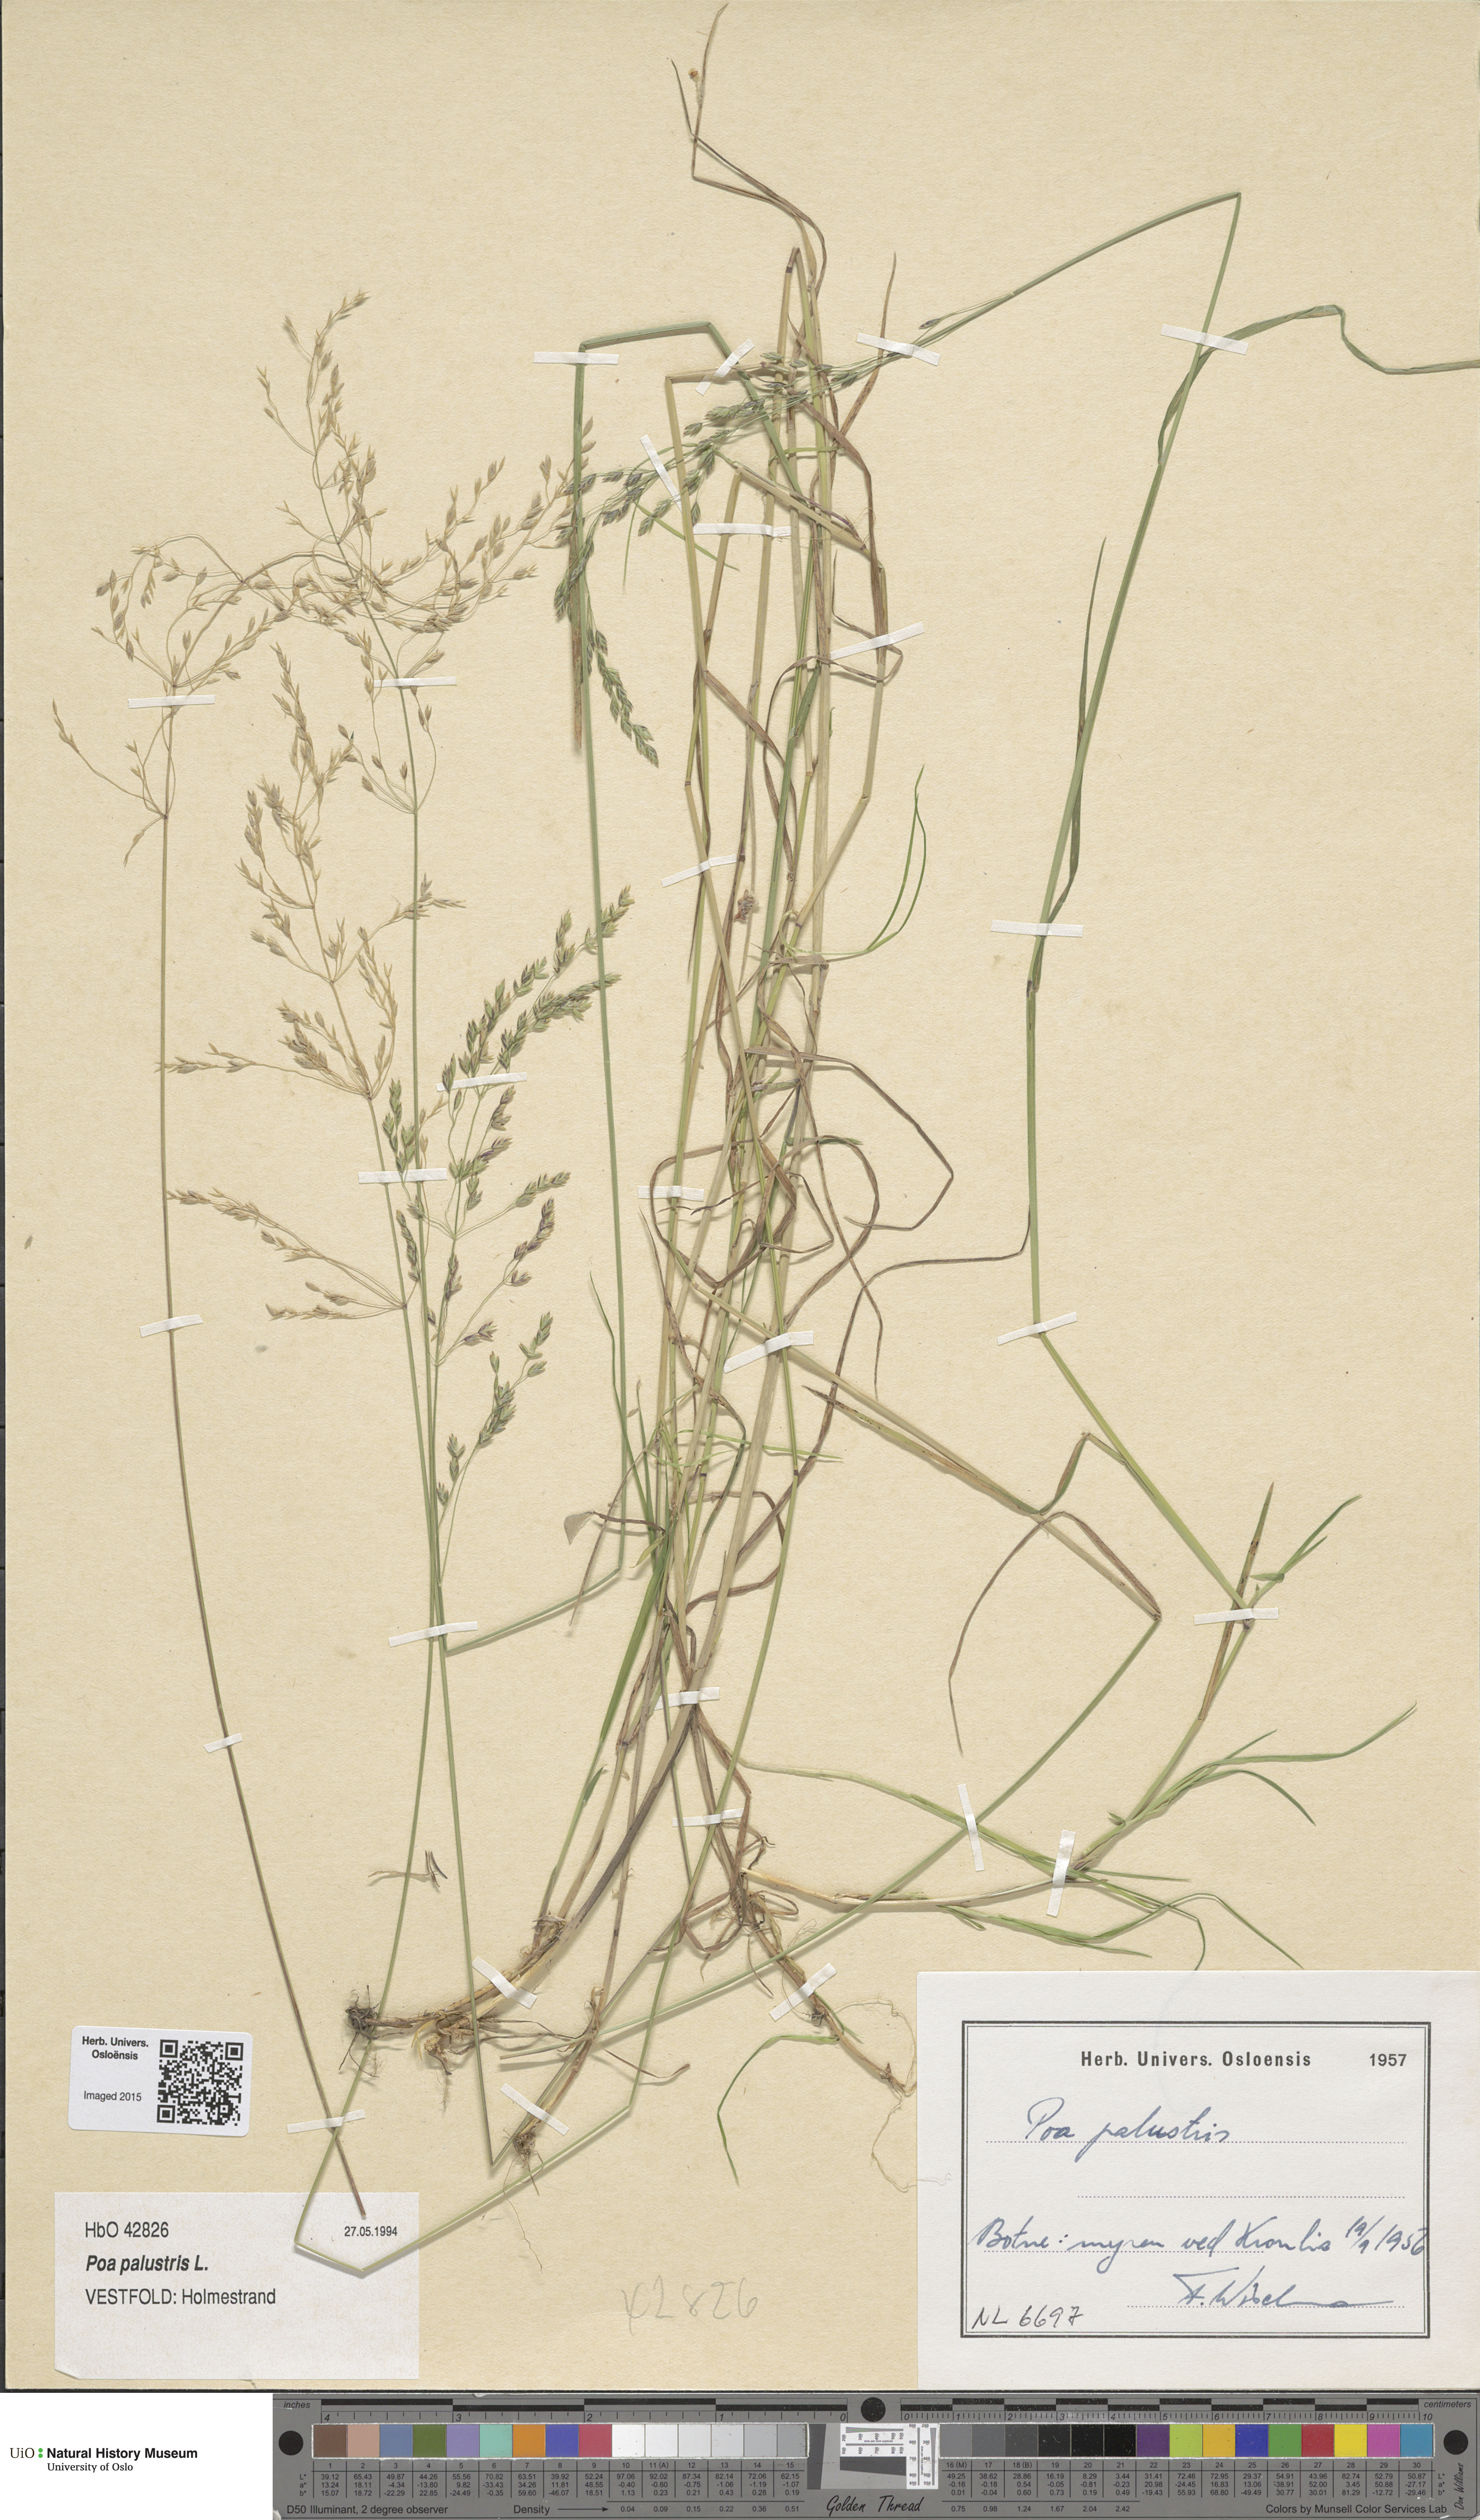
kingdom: Plantae
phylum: Tracheophyta
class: Liliopsida
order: Poales
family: Poaceae
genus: Poa
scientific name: Poa palustris
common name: Swamp meadow-grass
